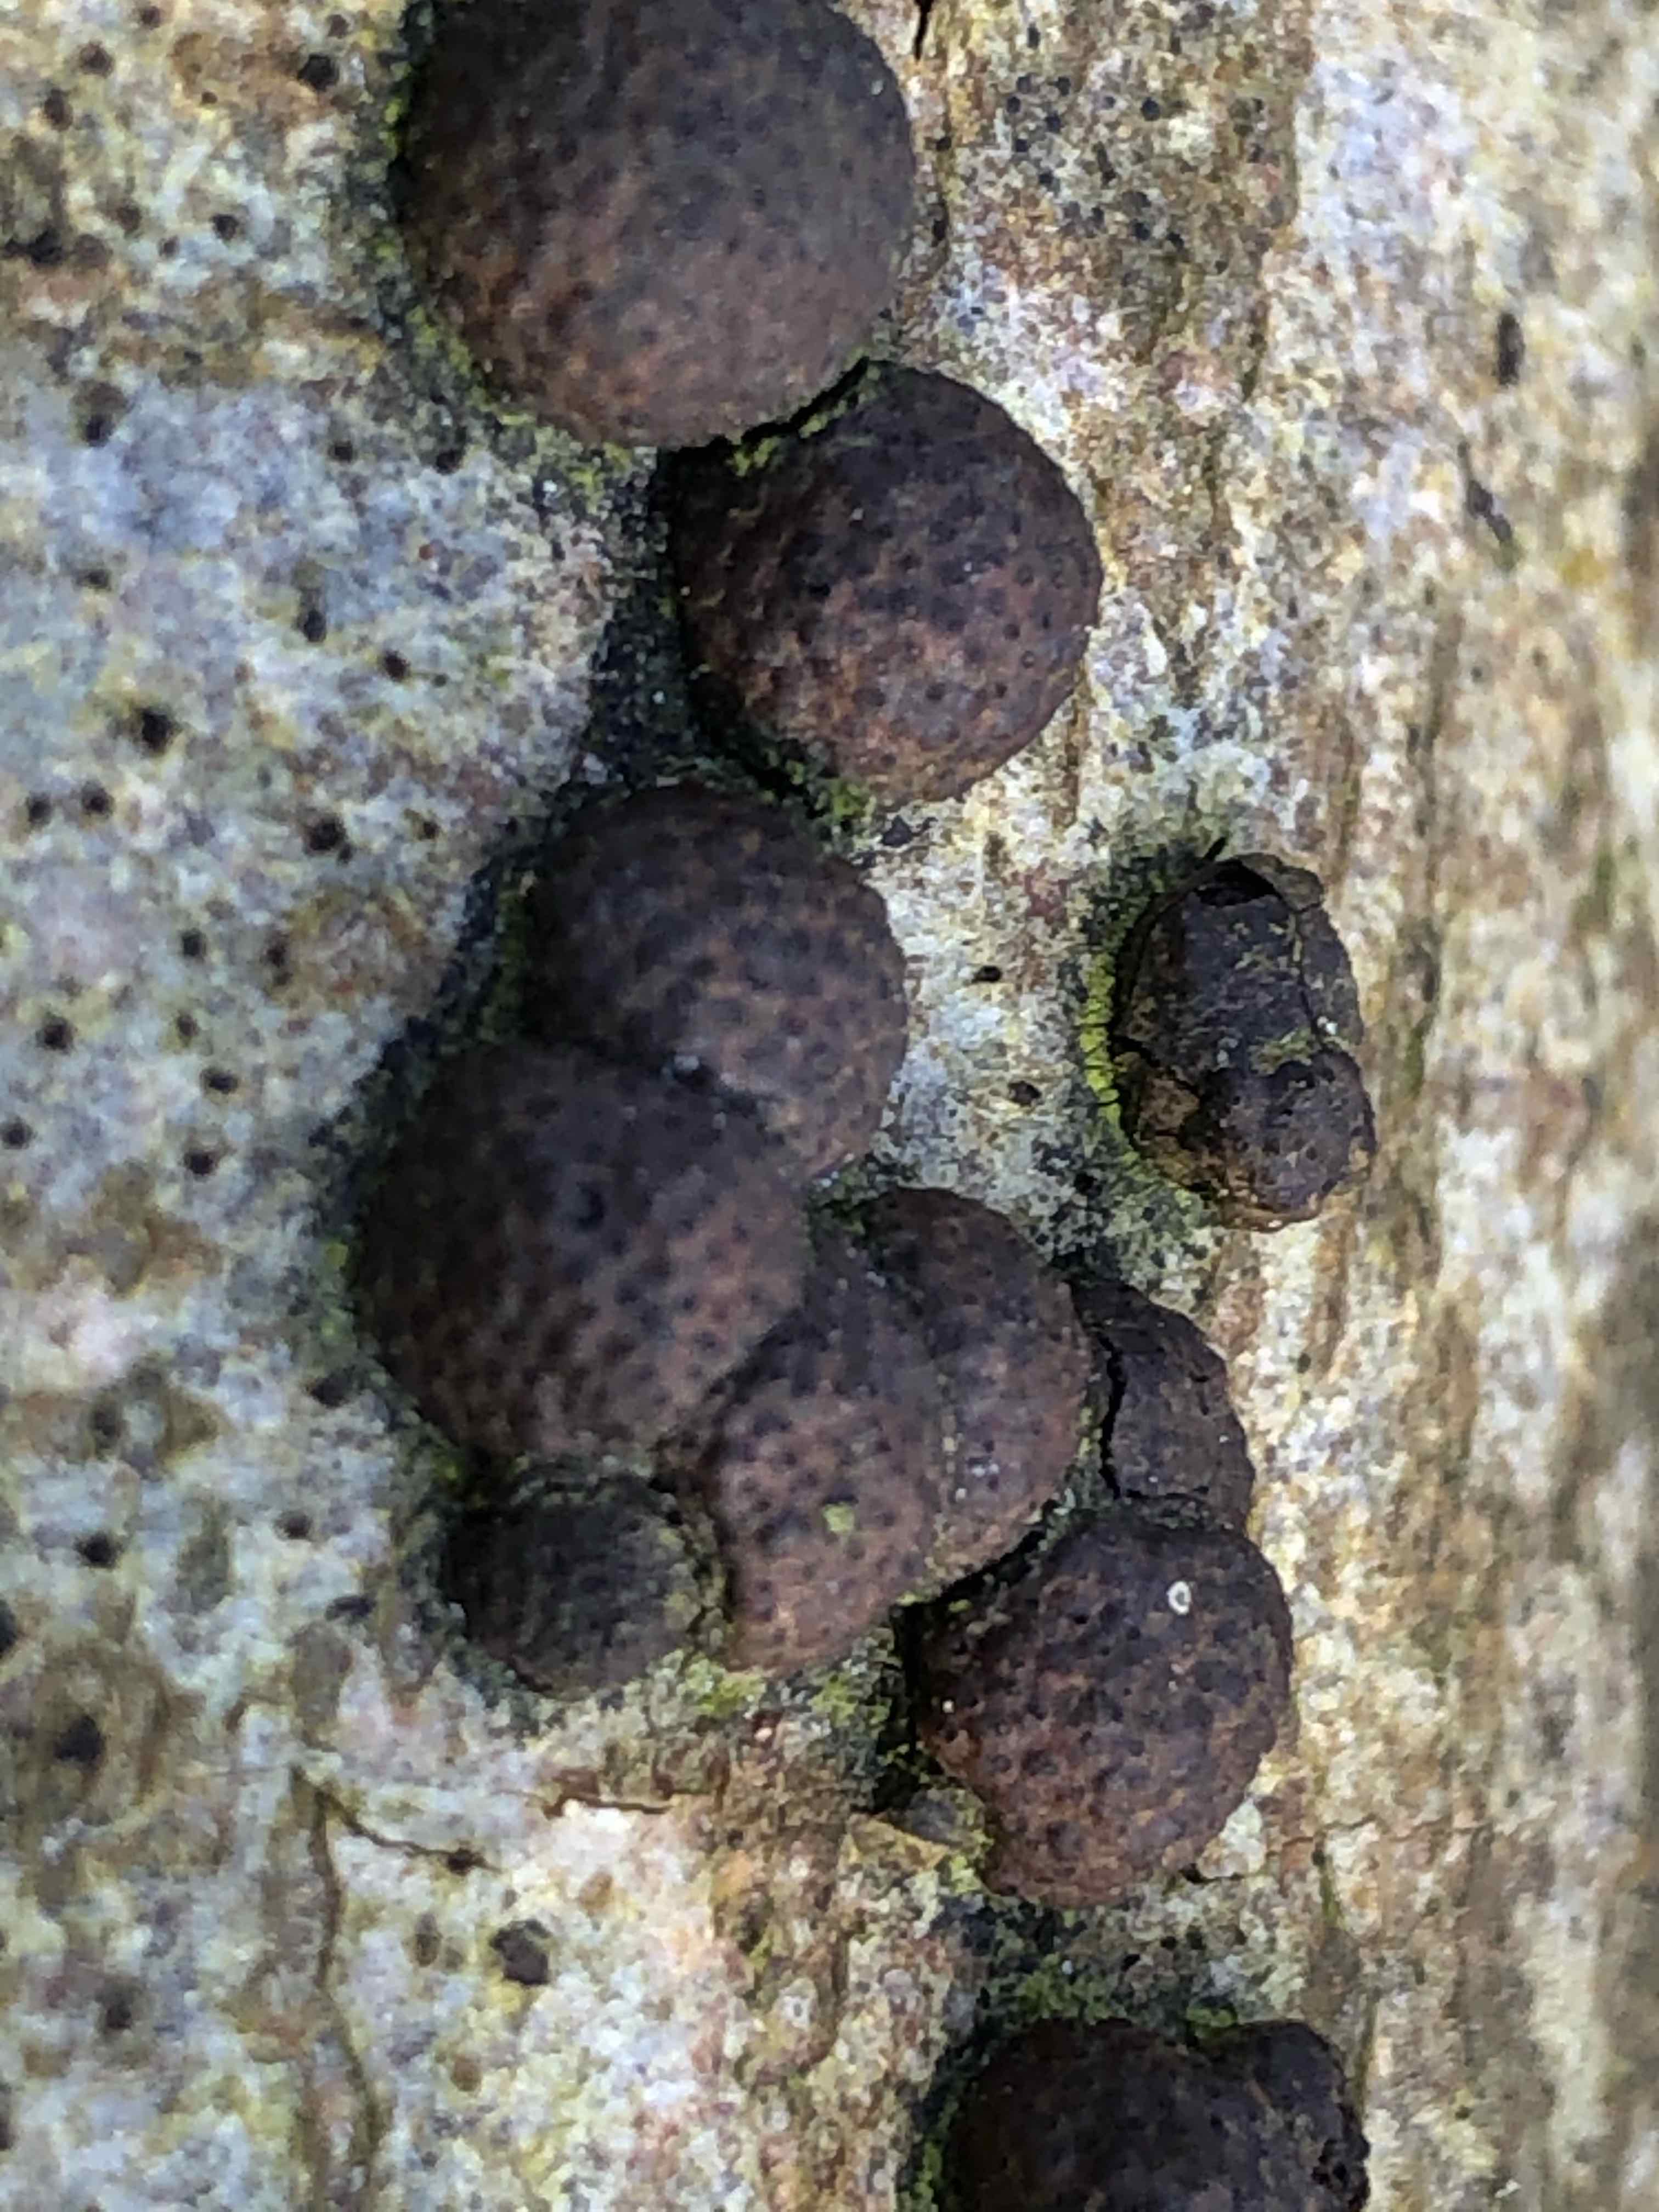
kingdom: Fungi
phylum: Ascomycota
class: Sordariomycetes
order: Xylariales
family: Hypoxylaceae
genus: Hypoxylon
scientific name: Hypoxylon fragiforme
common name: kuljordbær
